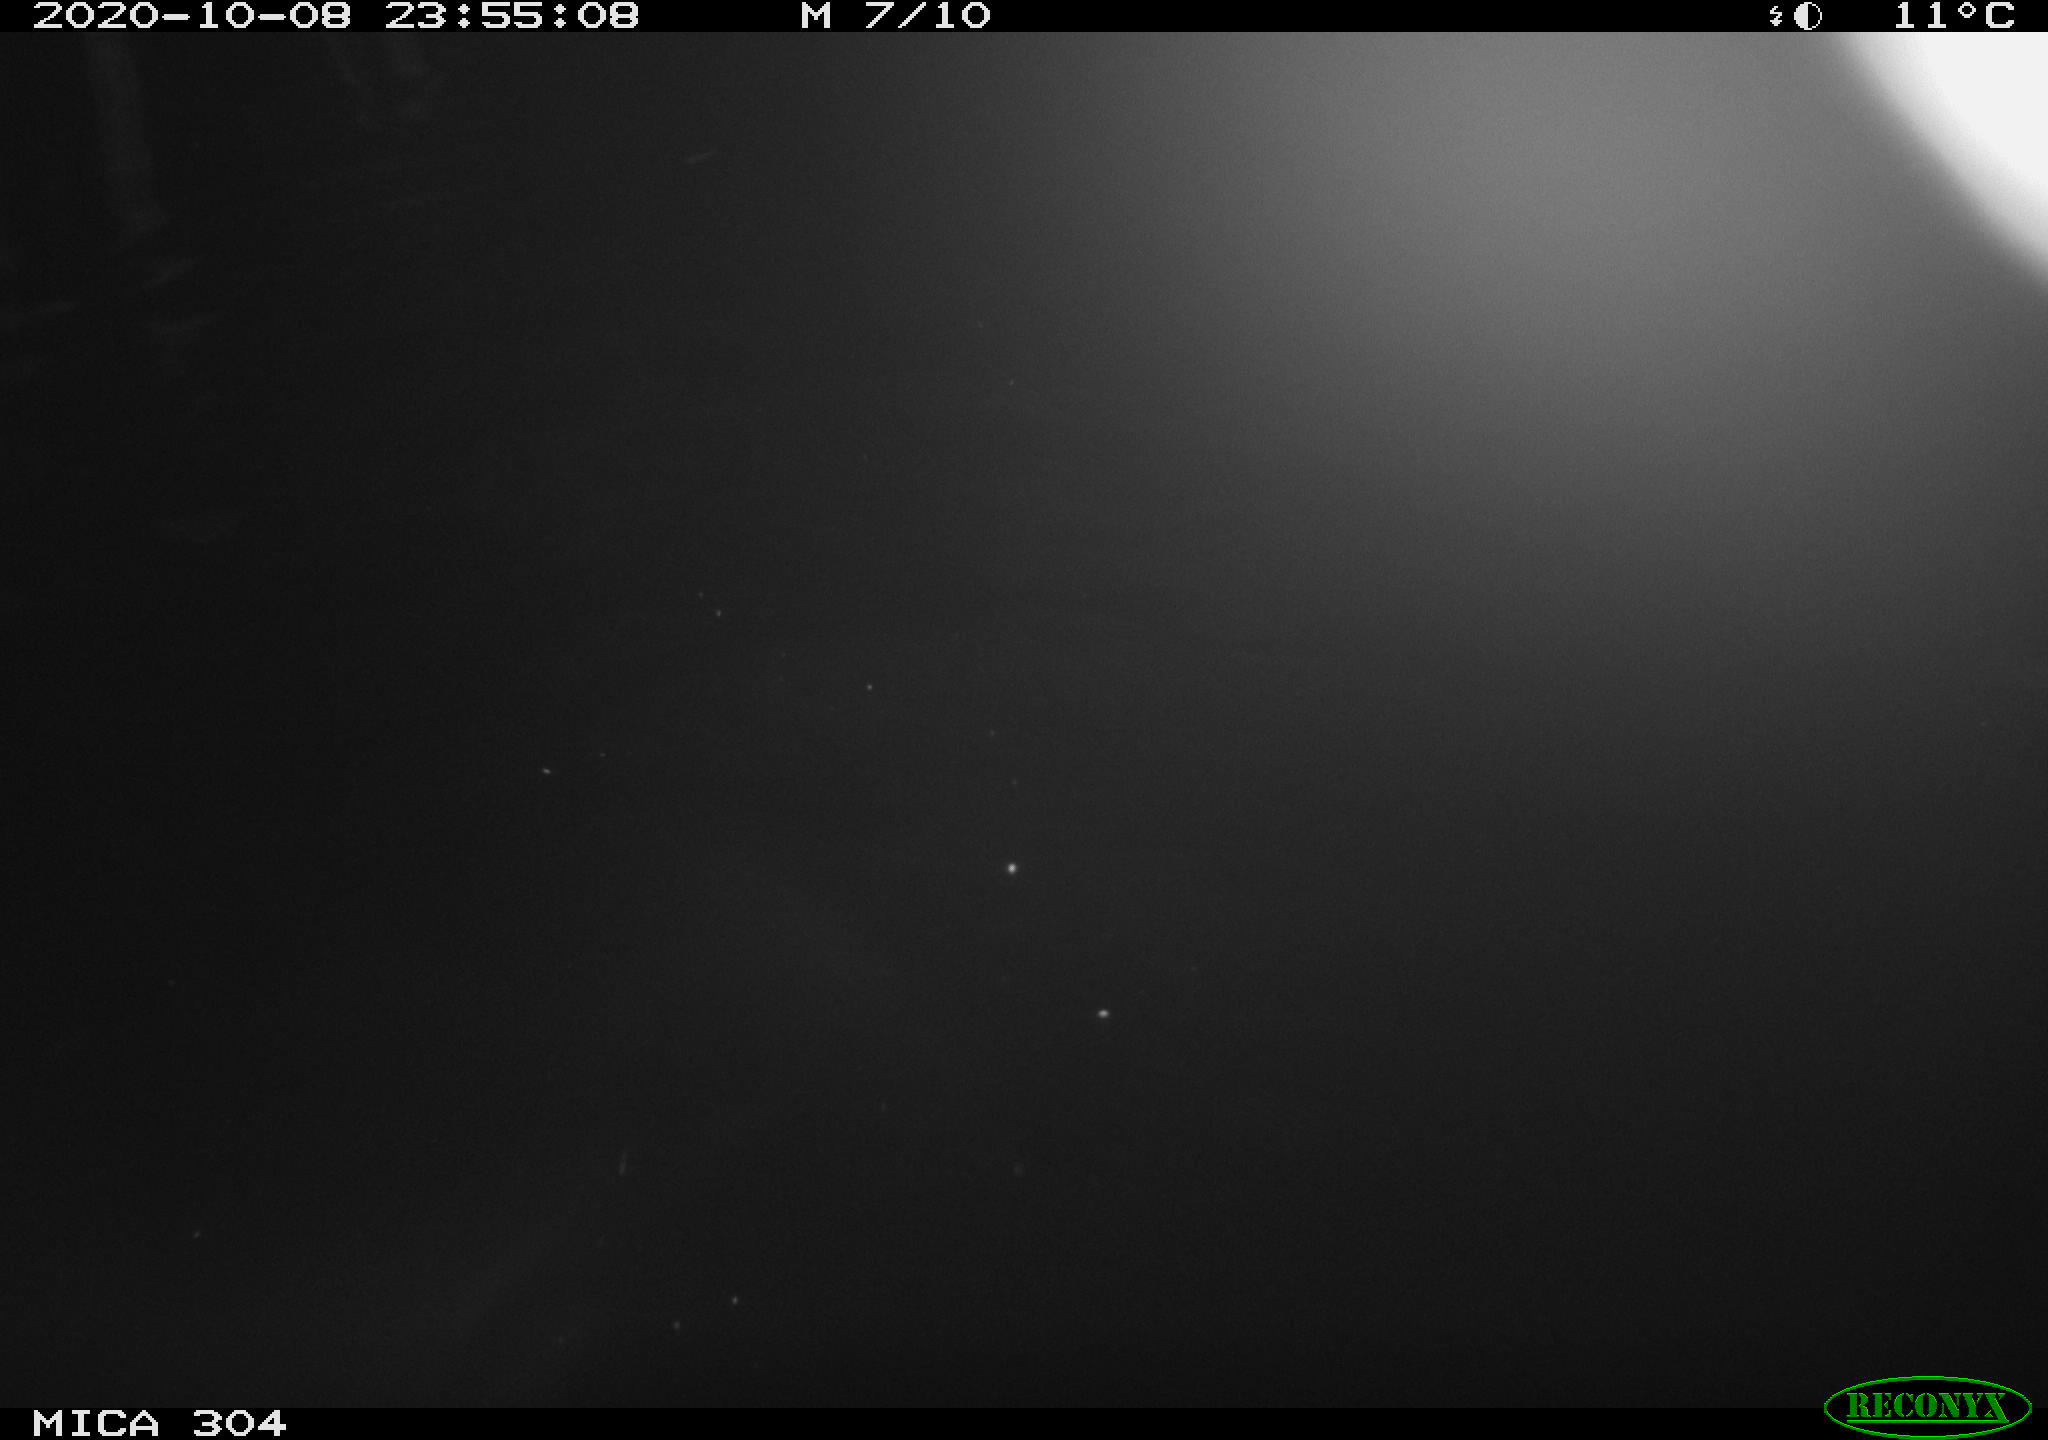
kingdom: Animalia
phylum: Chordata
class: Mammalia
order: Rodentia
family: Cricetidae
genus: Ondatra
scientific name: Ondatra zibethicus
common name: Muskrat
